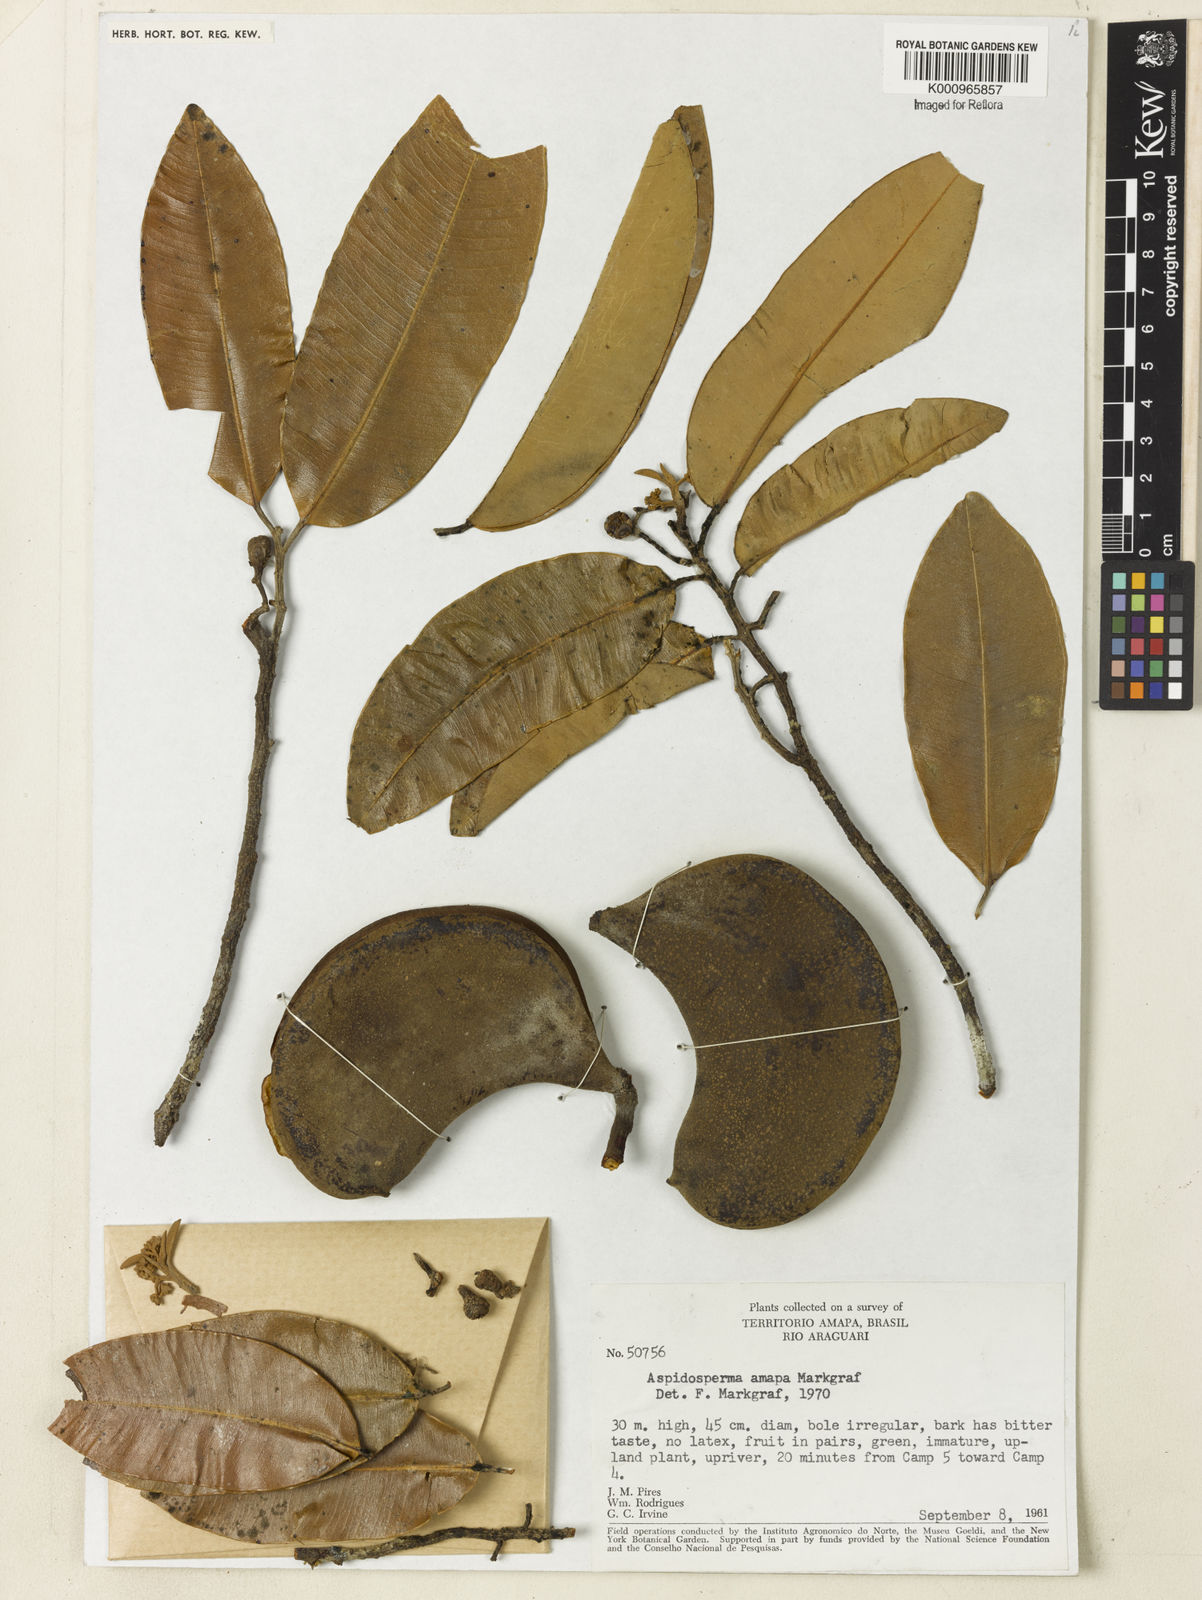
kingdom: Plantae
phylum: Tracheophyta
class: Magnoliopsida
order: Gentianales
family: Apocynaceae
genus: Aspidosperma
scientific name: Aspidosperma
